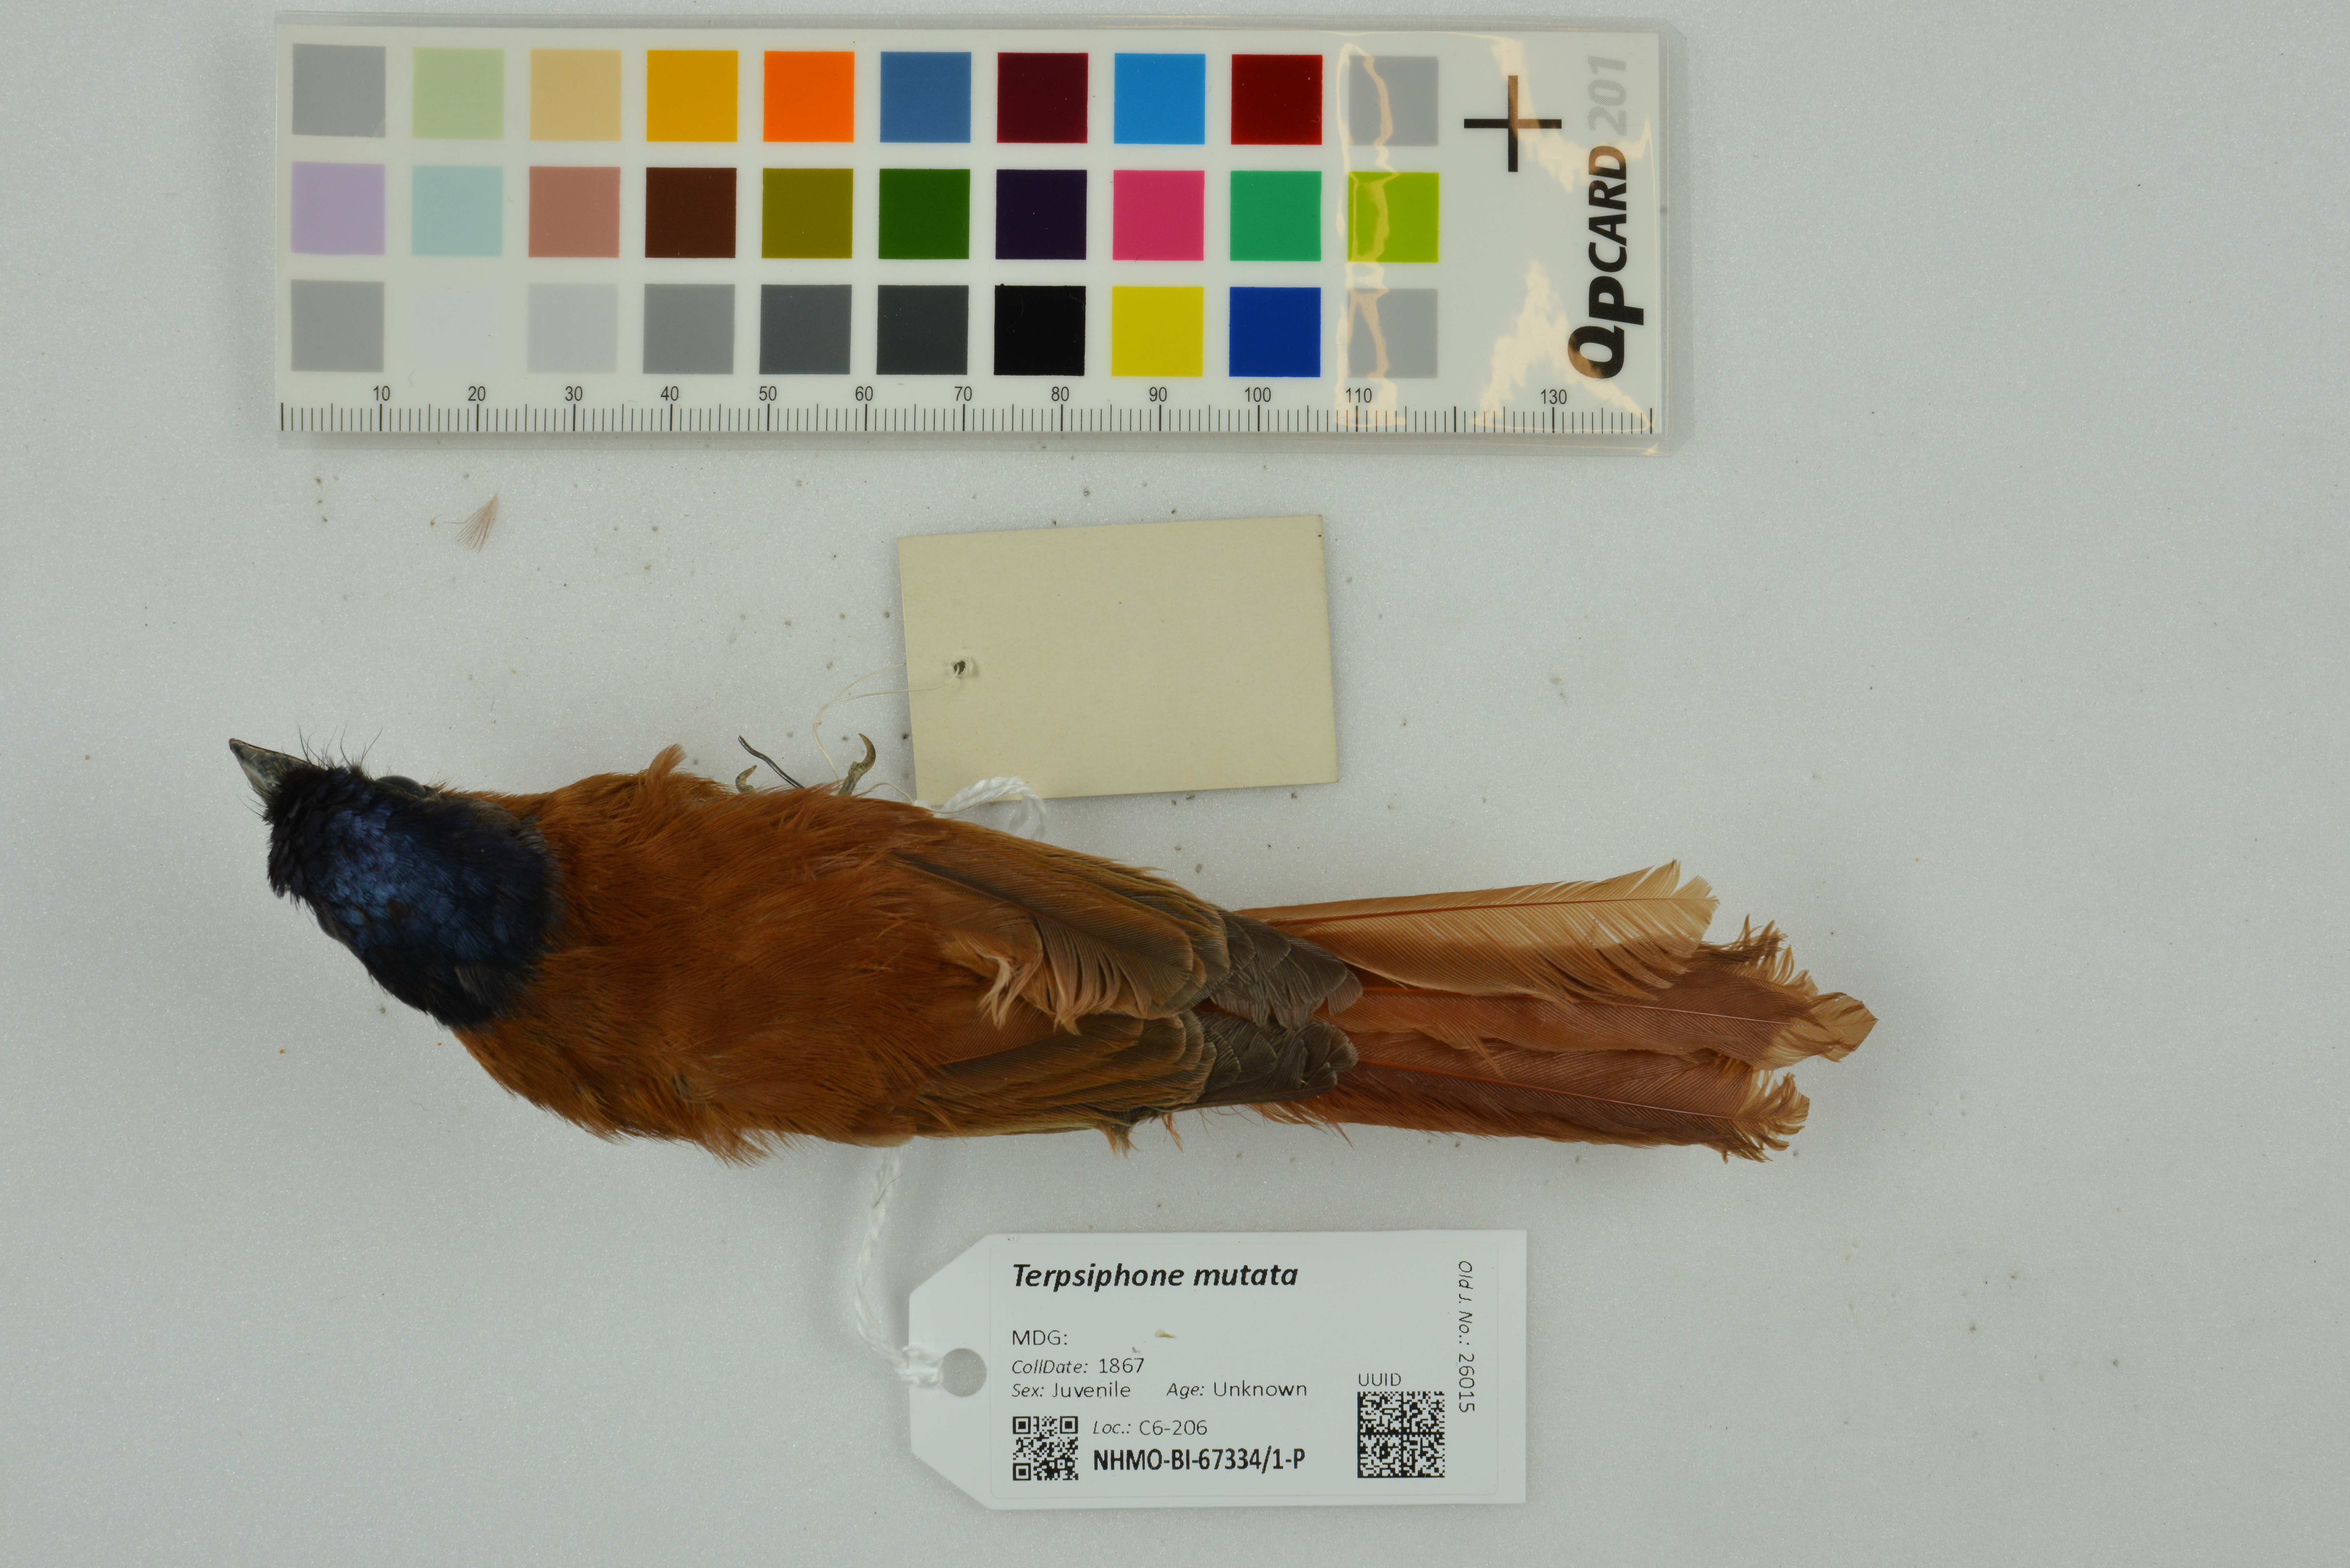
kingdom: Animalia
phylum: Chordata
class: Aves
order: Passeriformes
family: Monarchidae
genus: Terpsiphone
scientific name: Terpsiphone mutata
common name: Malagasy paradise flycatcher
